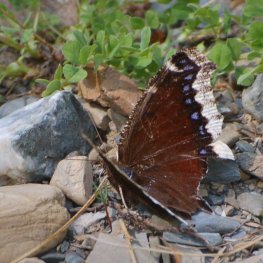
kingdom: Animalia
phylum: Arthropoda
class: Insecta
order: Lepidoptera
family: Nymphalidae
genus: Nymphalis
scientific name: Nymphalis antiopa
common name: Mourning Cloak
